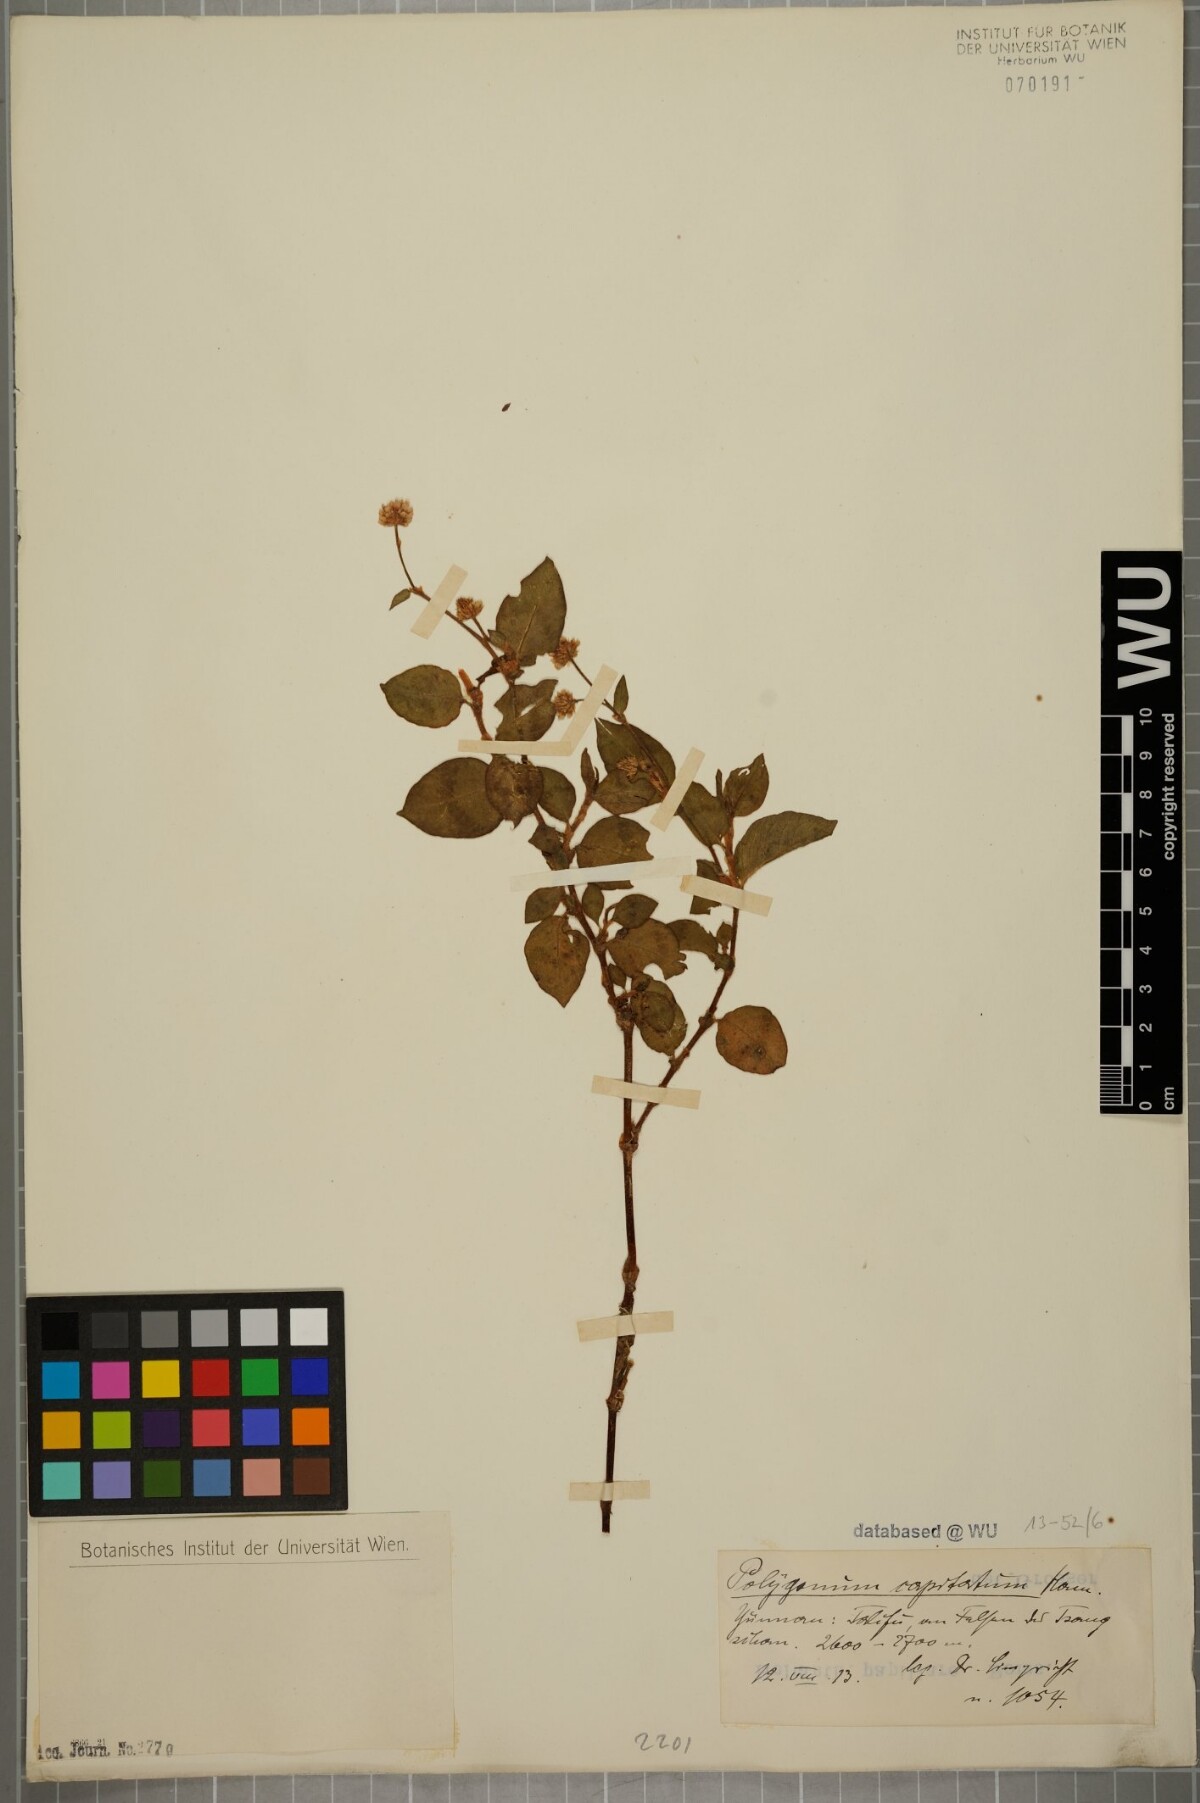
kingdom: Plantae
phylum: Tracheophyta
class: Magnoliopsida
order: Caryophyllales
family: Polygonaceae
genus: Persicaria
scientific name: Persicaria capitata
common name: Pinkhead smartweed
